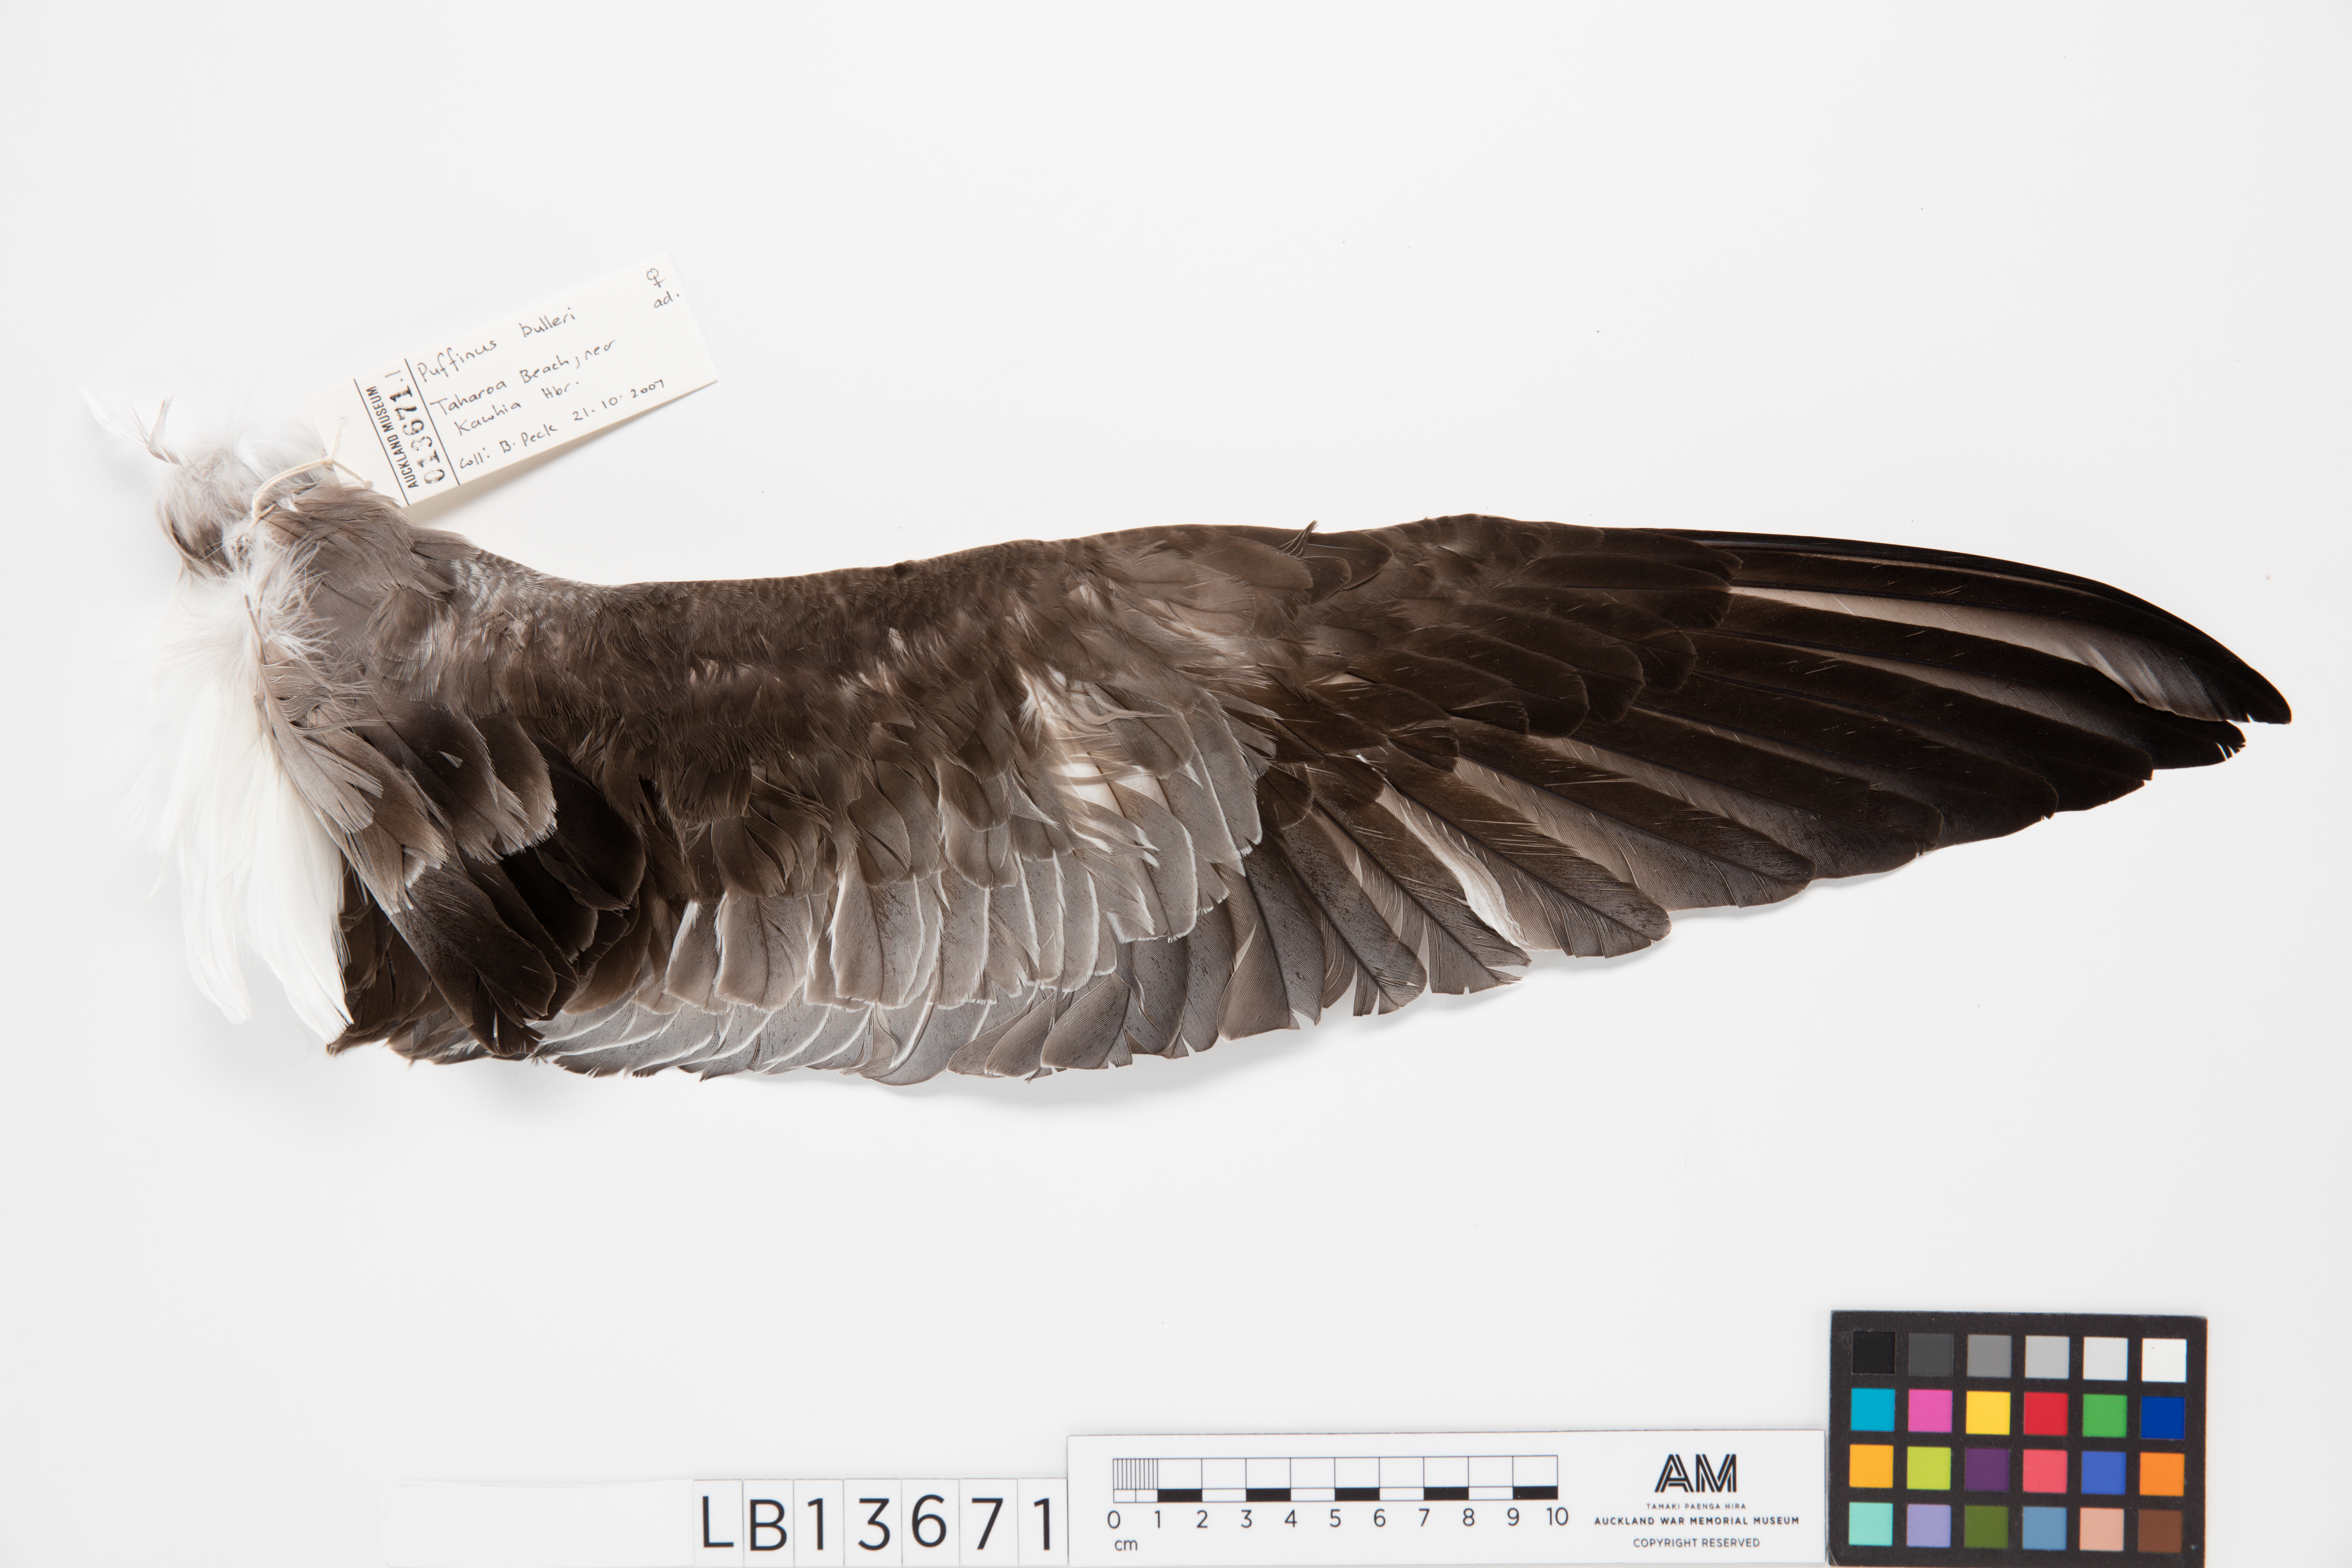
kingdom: Animalia
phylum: Chordata
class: Aves
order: Procellariiformes
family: Procellariidae
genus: Ardenna
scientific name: Ardenna
